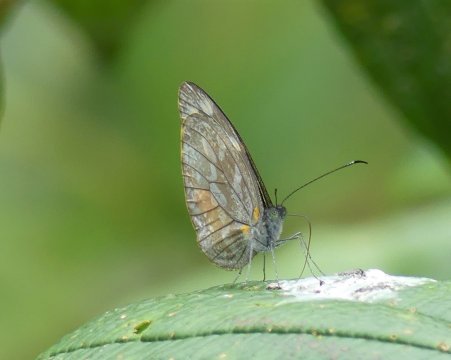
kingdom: Animalia
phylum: Arthropoda
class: Insecta
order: Lepidoptera
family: Pieridae
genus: Dismorphia
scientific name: Dismorphia zaela
